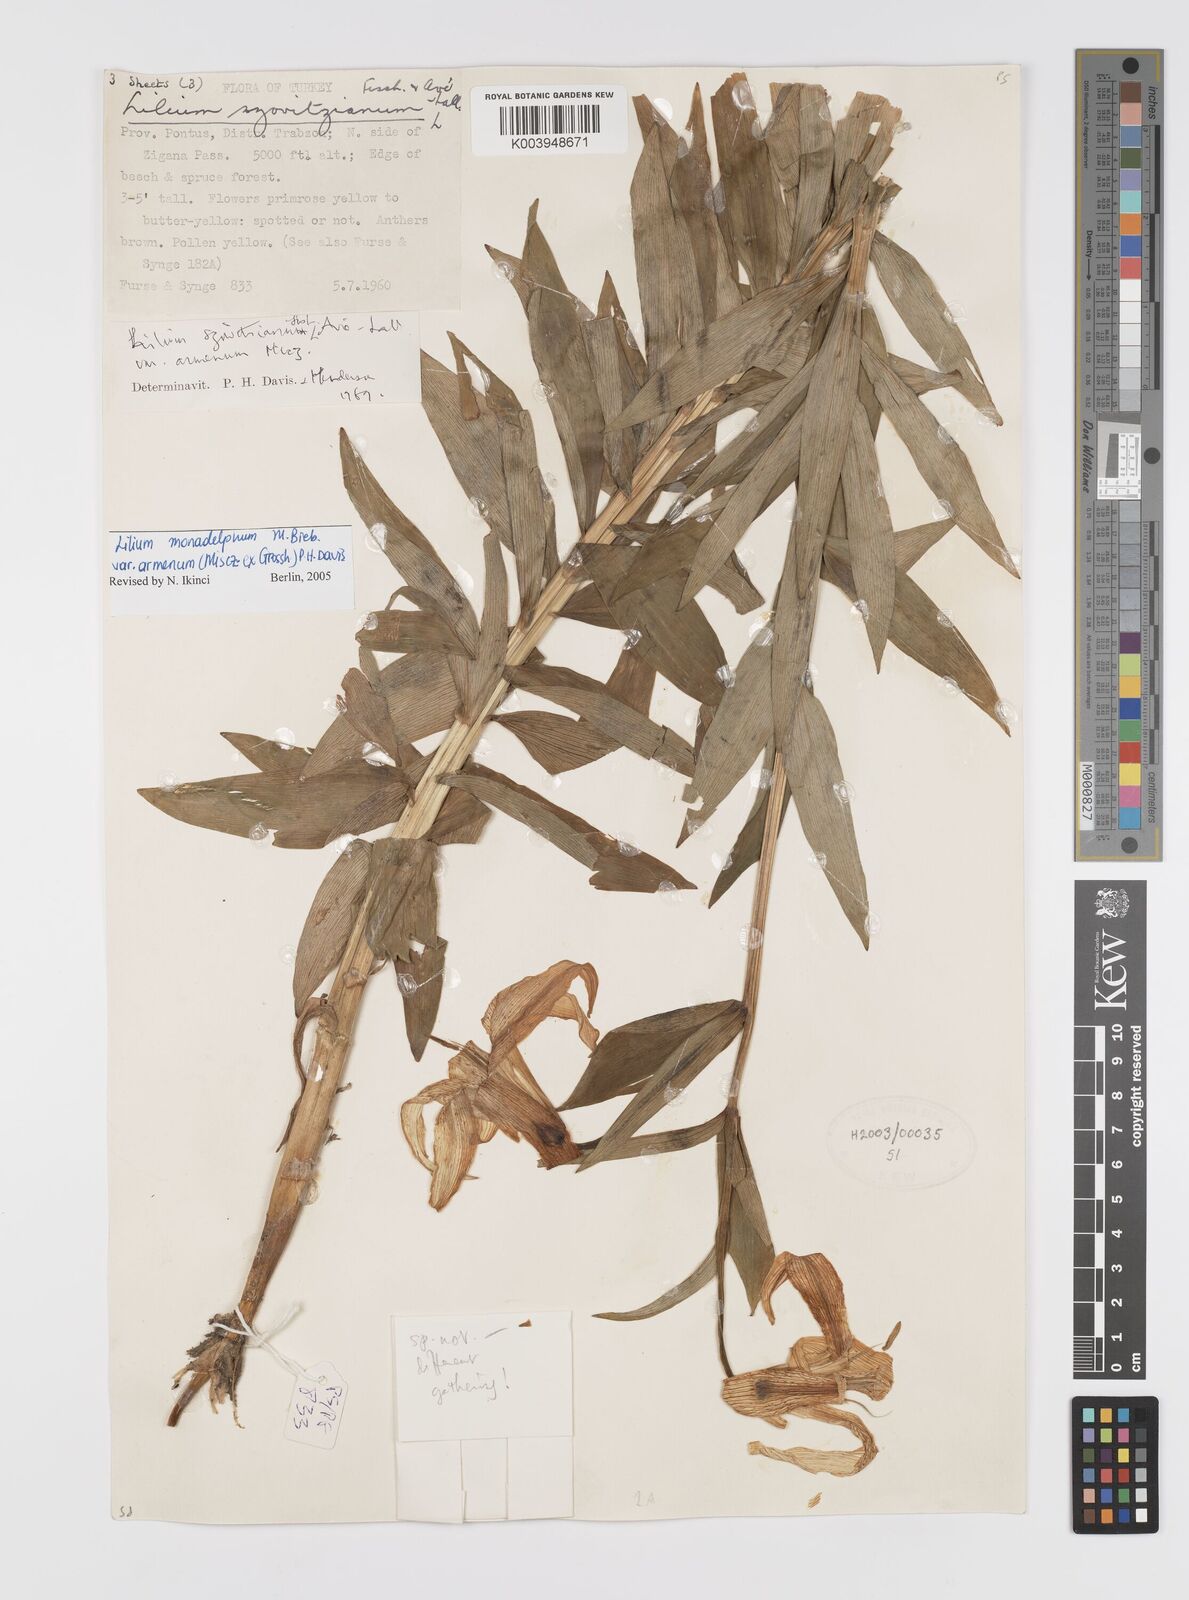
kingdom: Plantae
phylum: Tracheophyta
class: Liliopsida
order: Liliales
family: Liliaceae
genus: Lilium
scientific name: Lilium armenum
